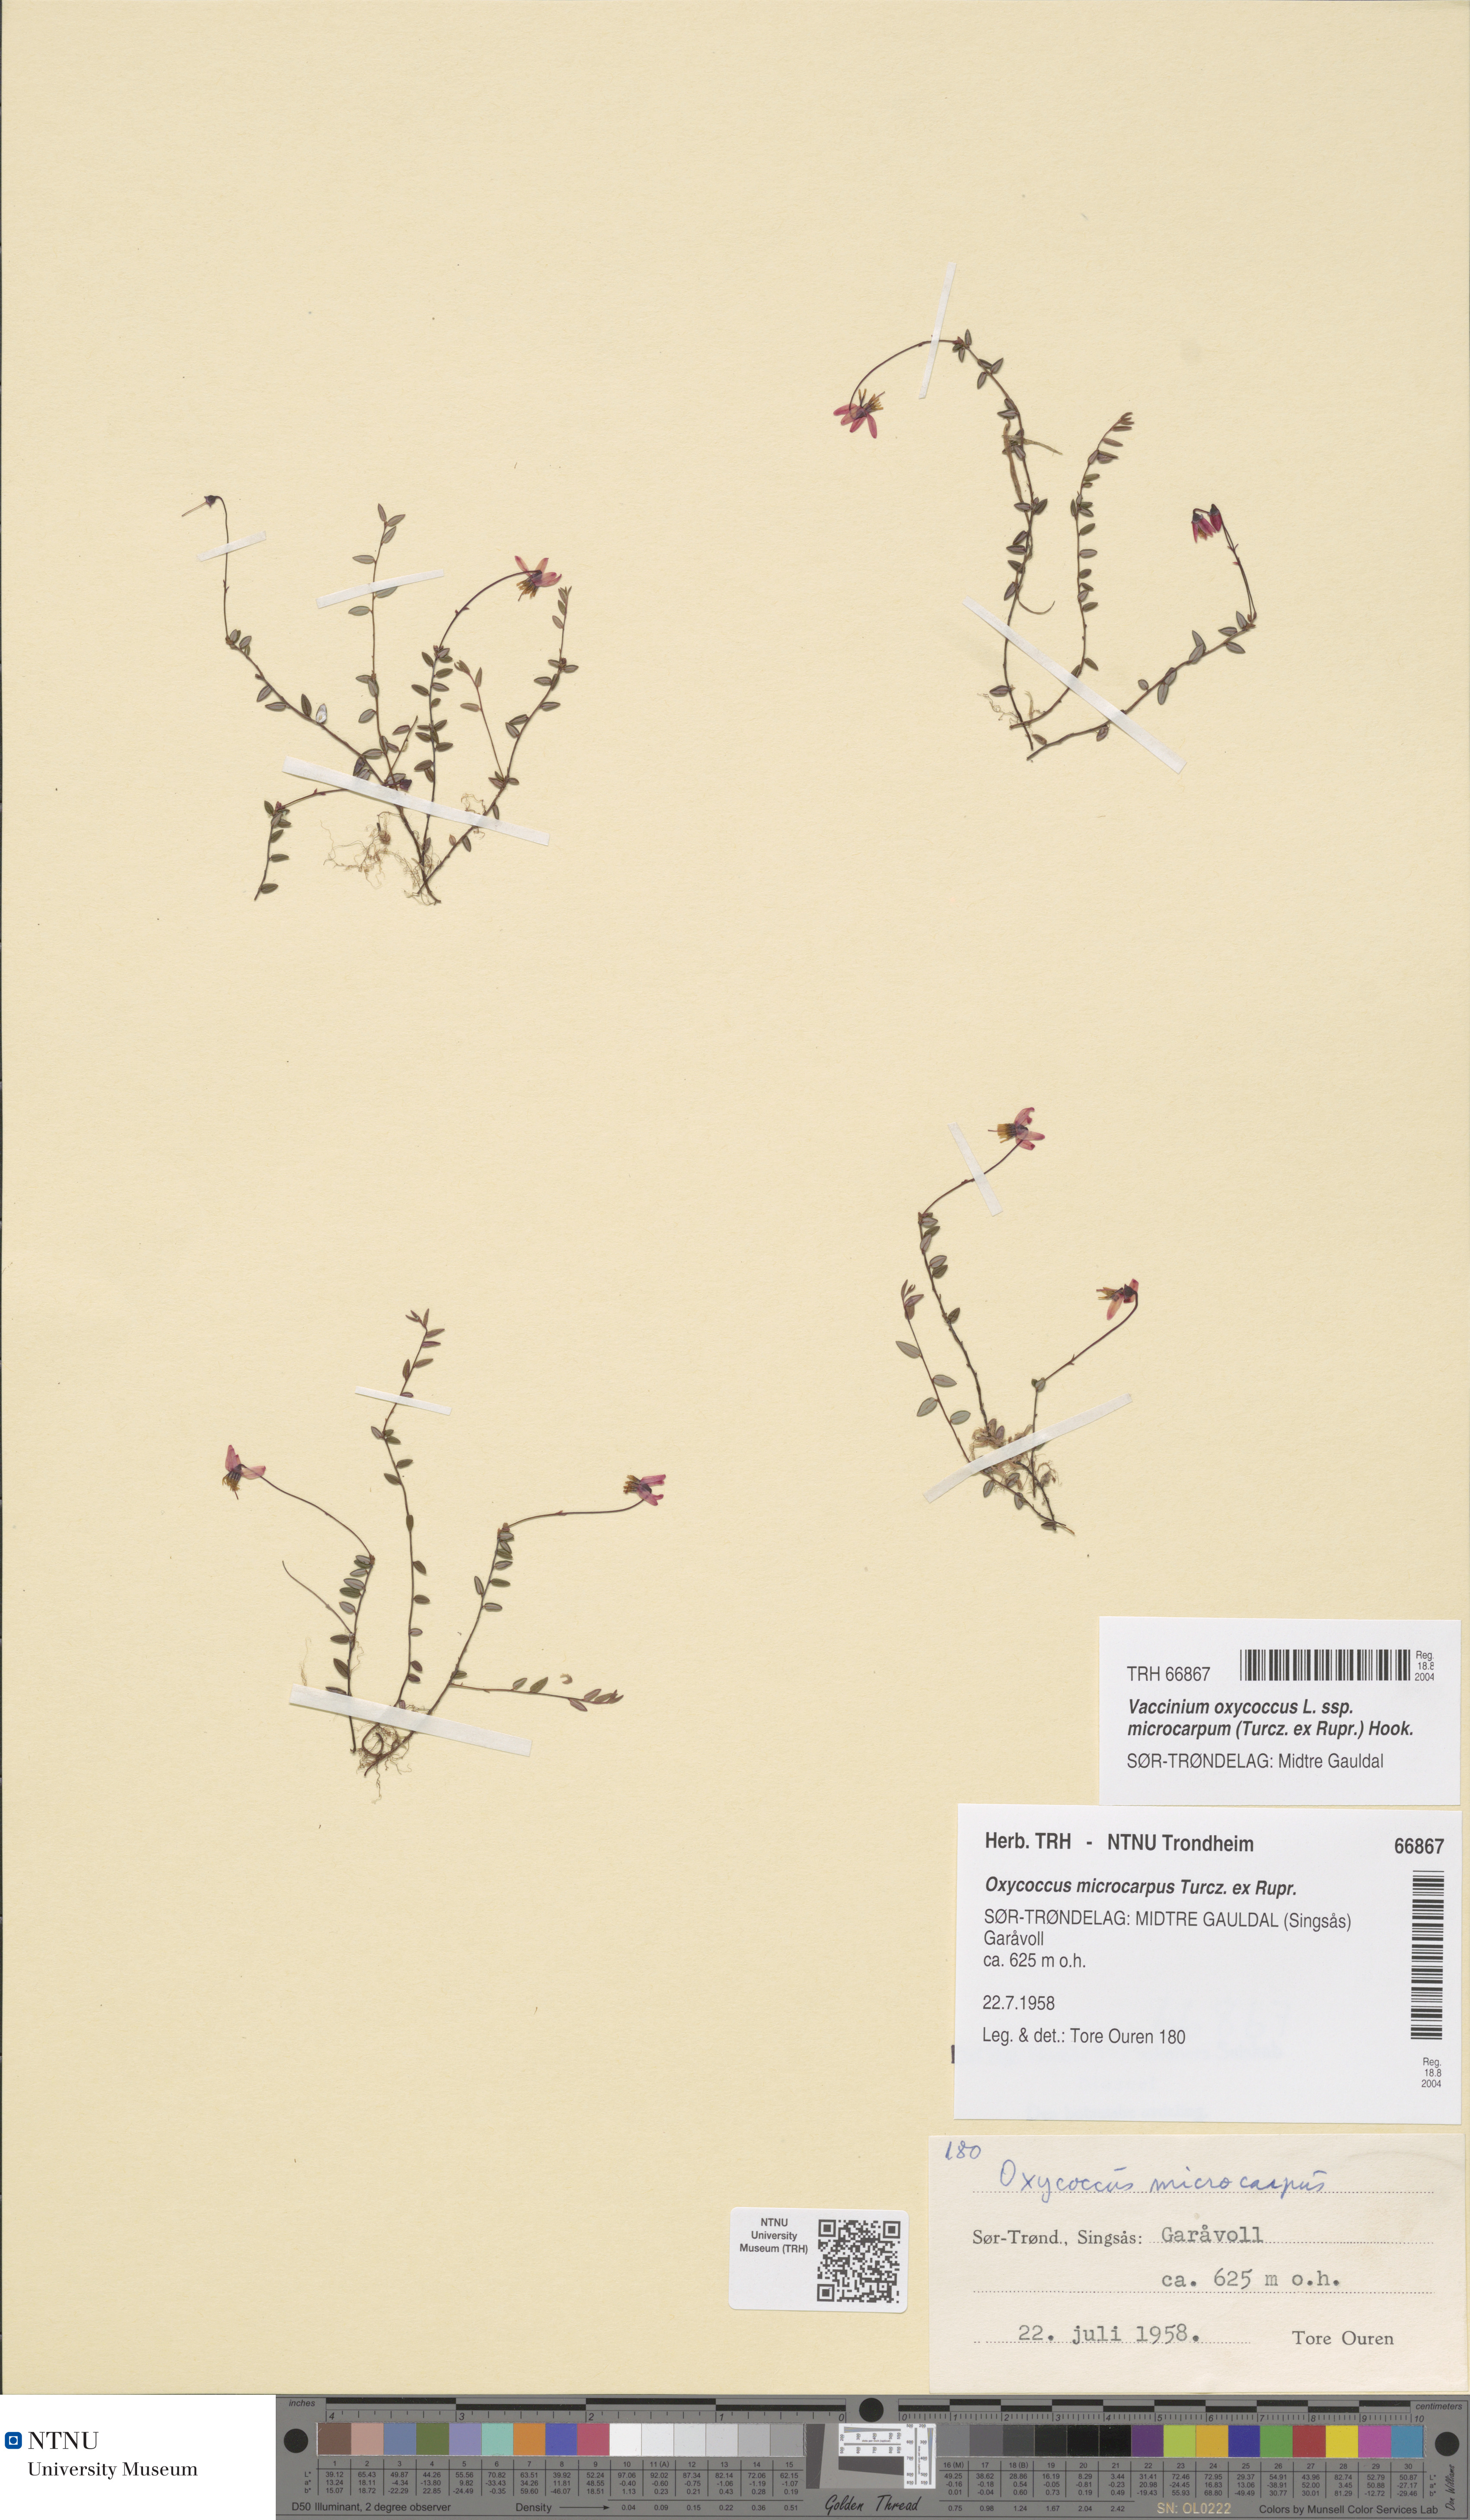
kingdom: Plantae
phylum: Tracheophyta
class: Magnoliopsida
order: Ericales
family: Ericaceae
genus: Vaccinium
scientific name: Vaccinium microcarpum
